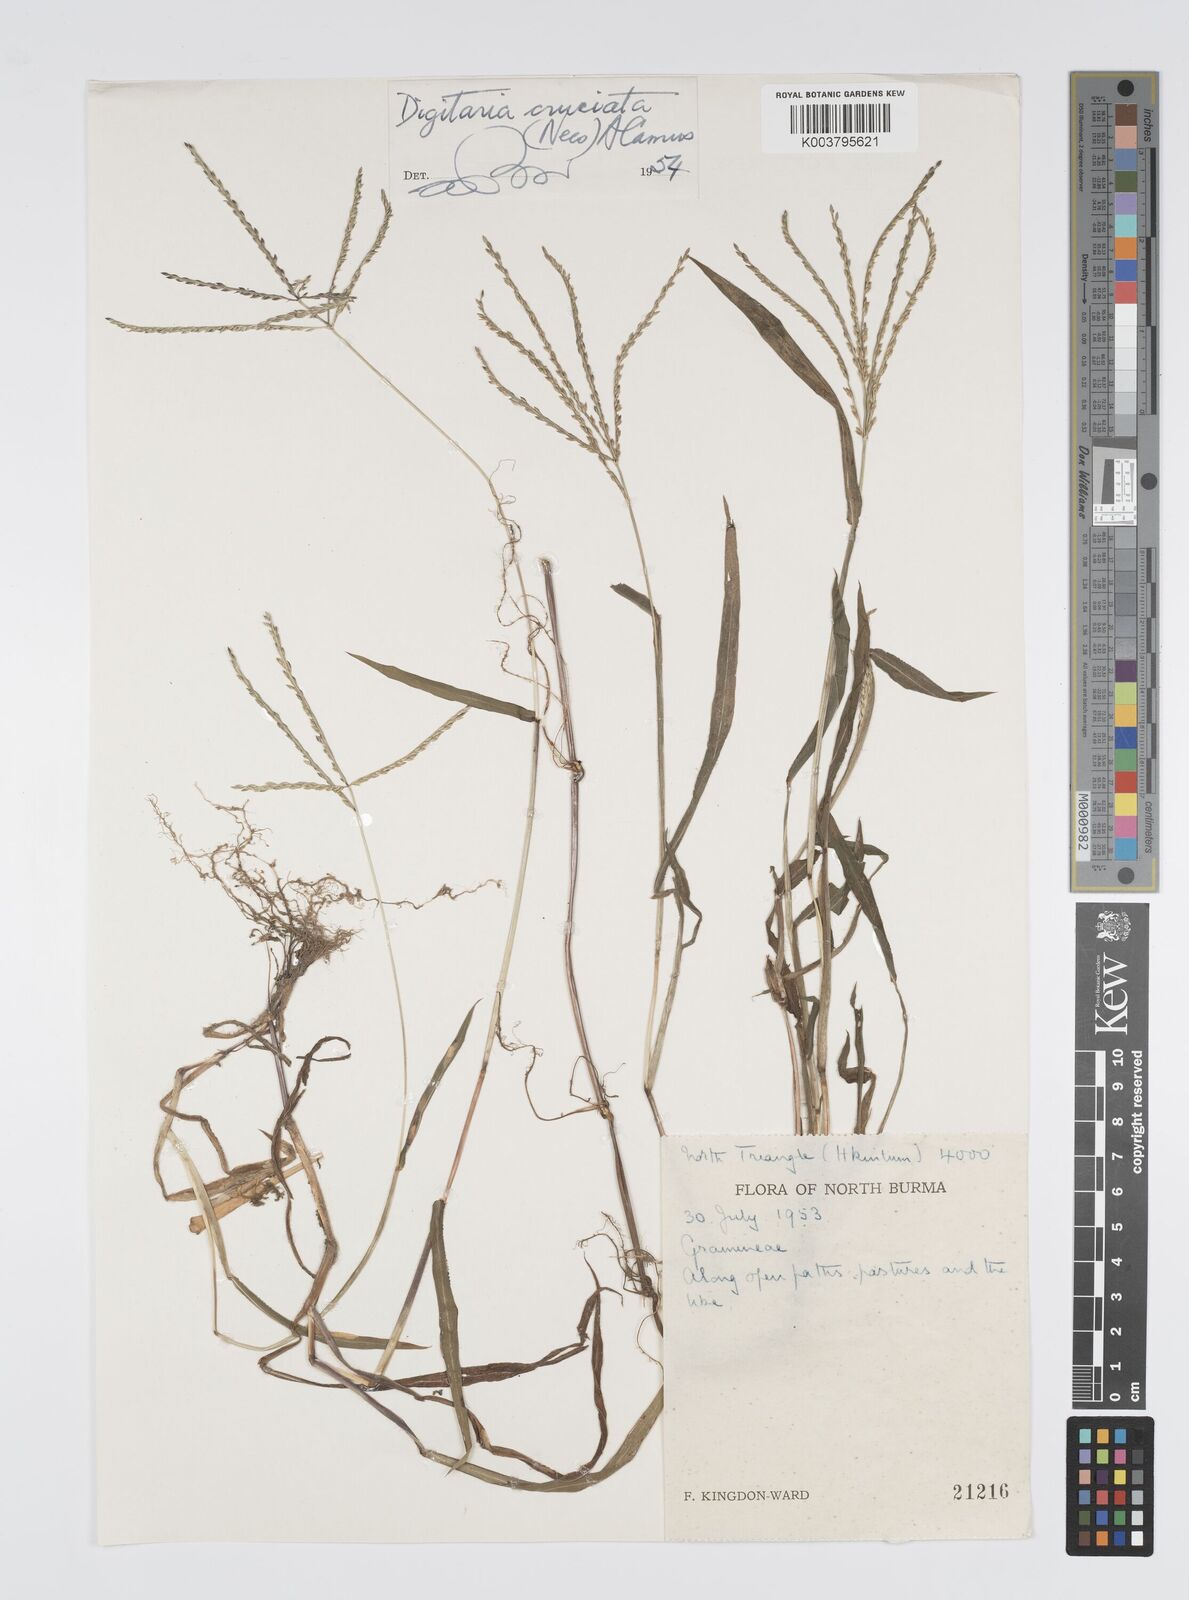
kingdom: Plantae
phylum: Tracheophyta
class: Liliopsida
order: Poales
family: Poaceae
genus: Digitaria
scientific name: Digitaria sanguinalis
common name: Hairy crabgrass
